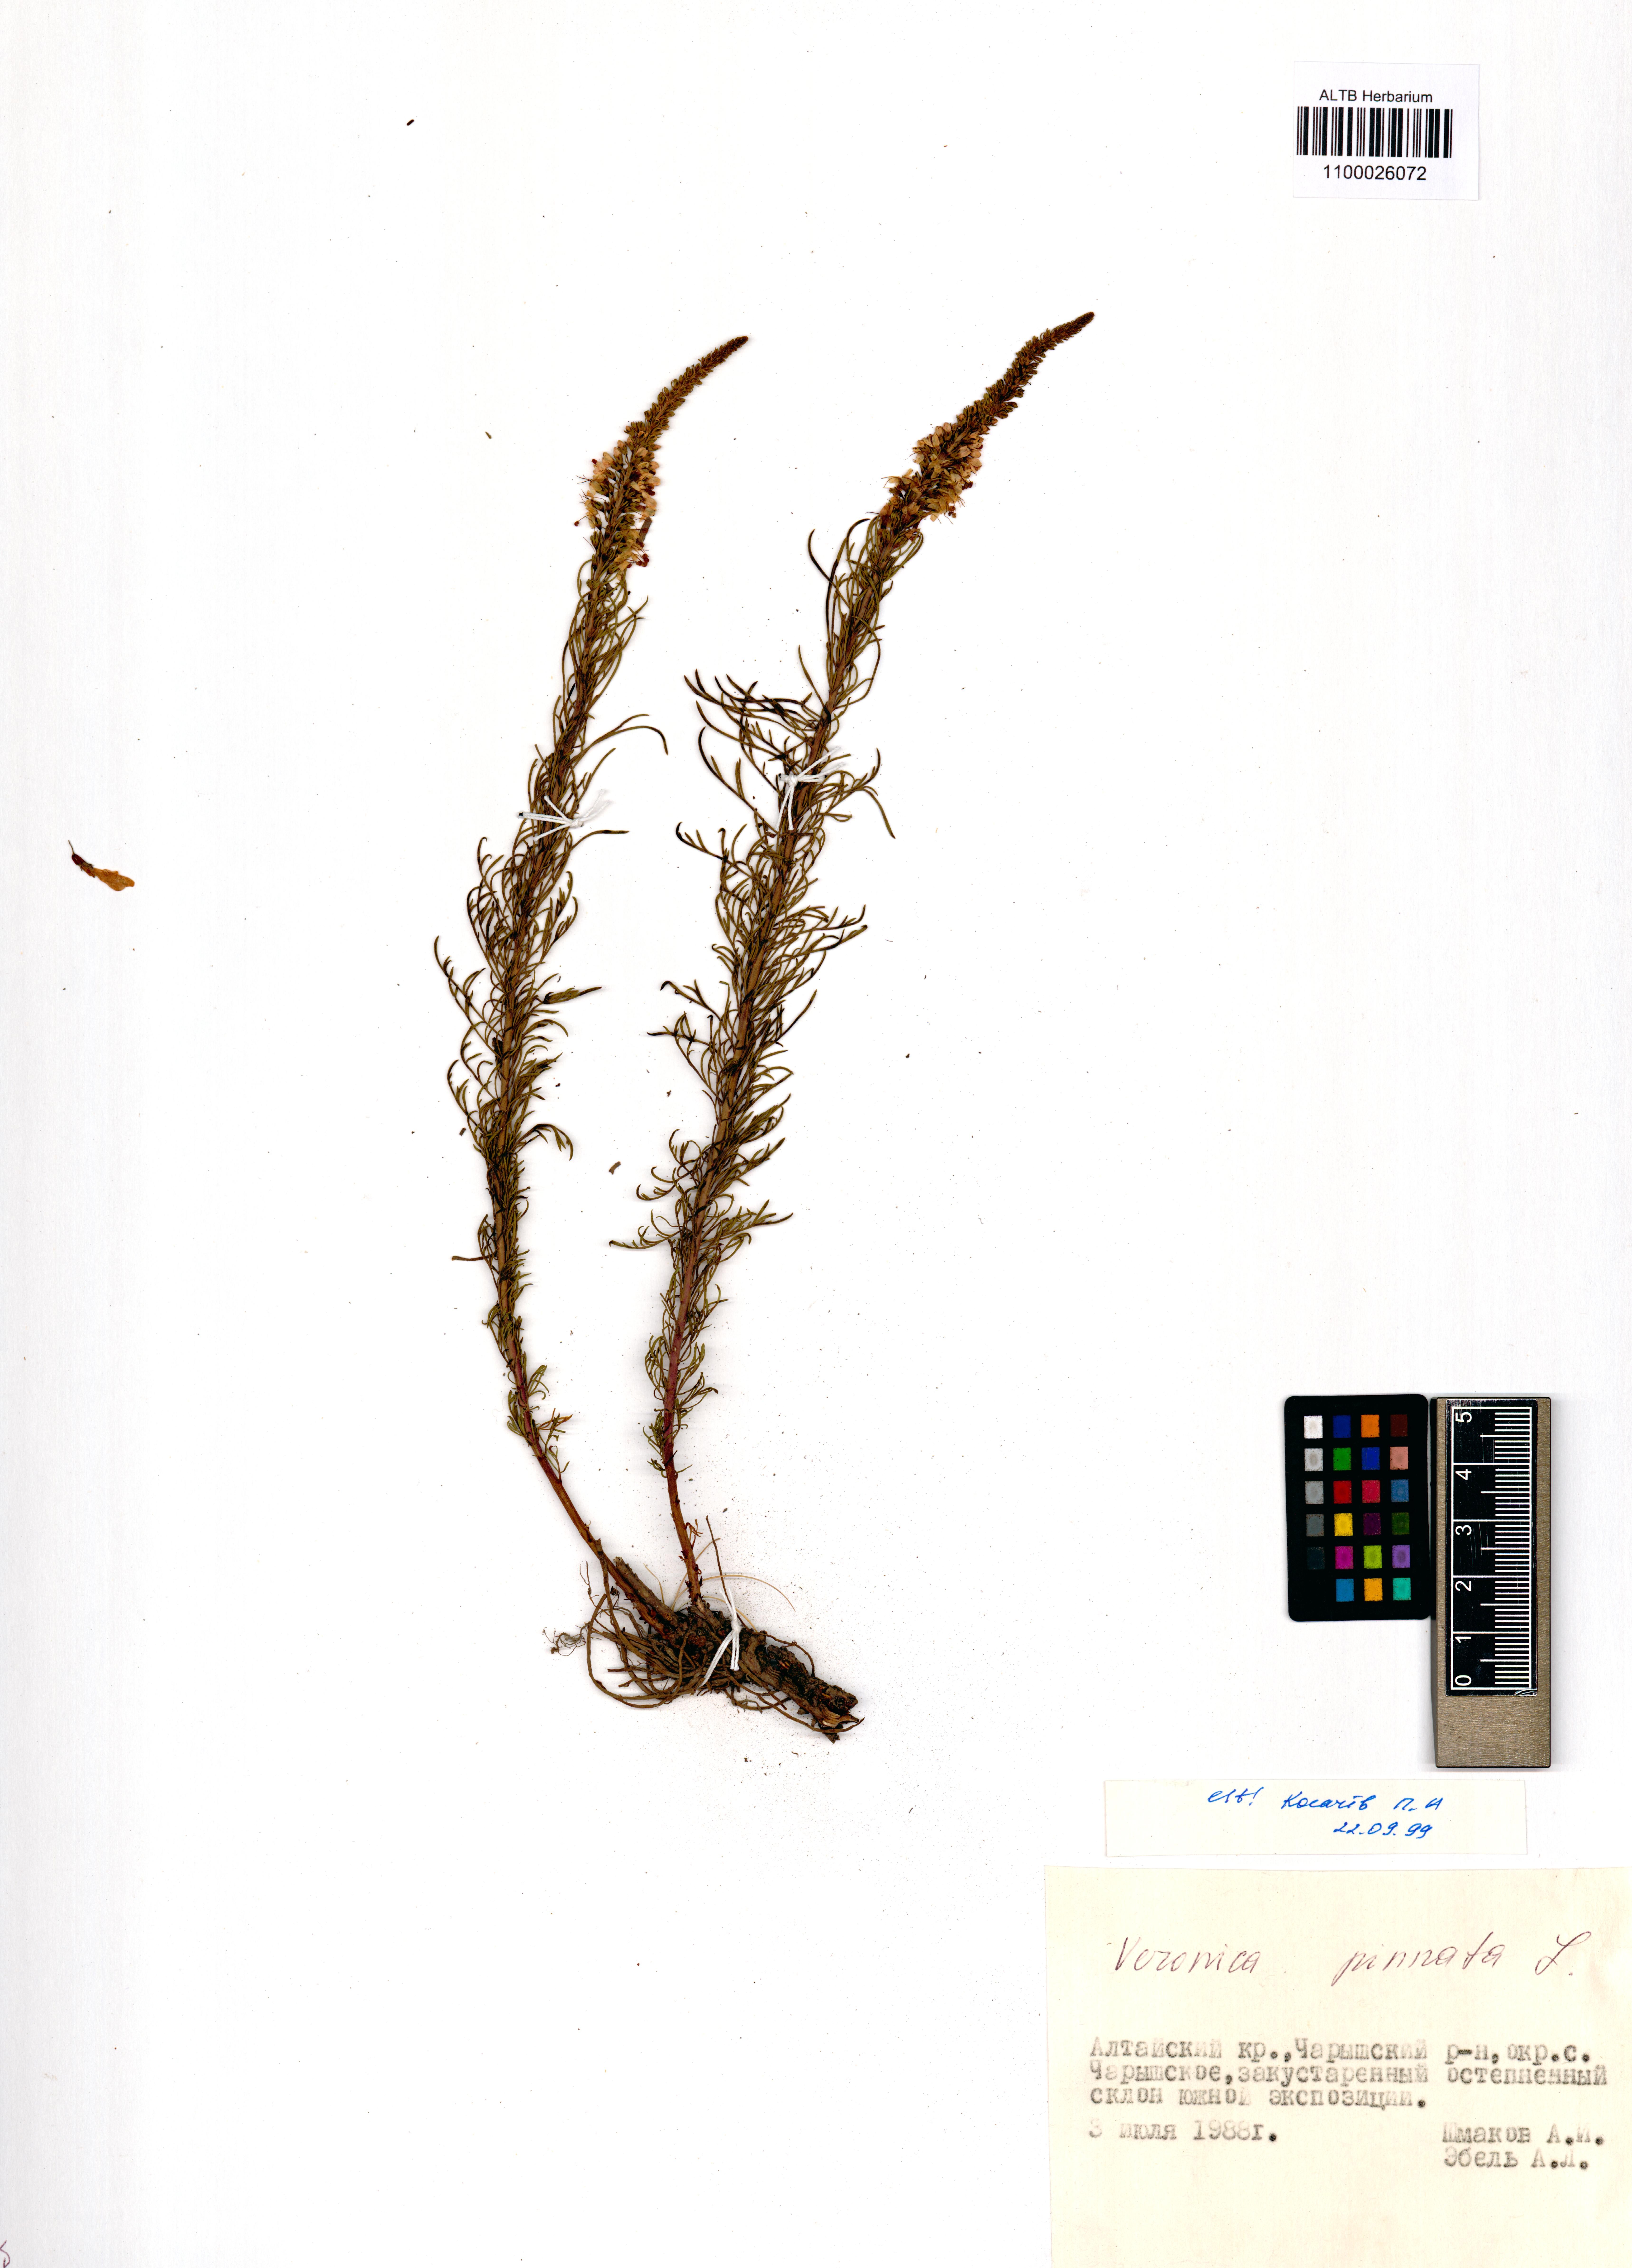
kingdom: Plantae
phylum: Tracheophyta
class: Magnoliopsida
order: Lamiales
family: Plantaginaceae
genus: Veronica
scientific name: Veronica pinnata
